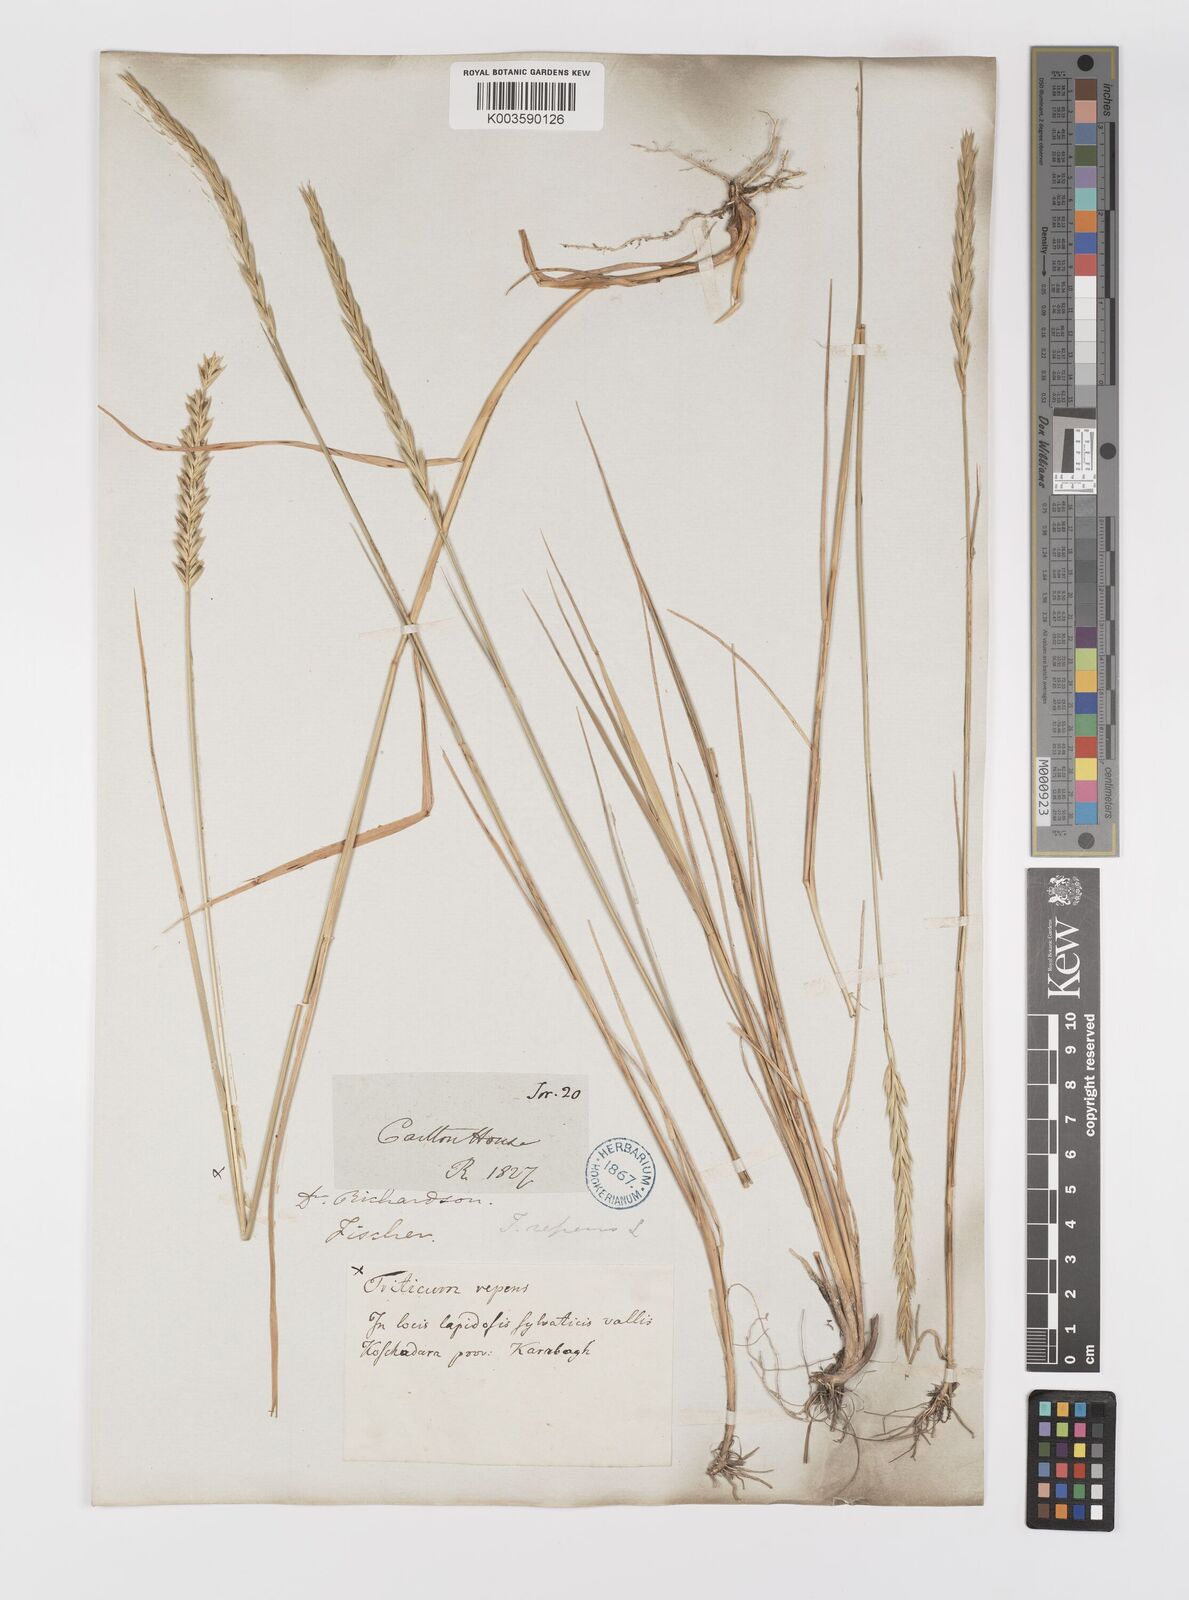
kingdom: Plantae
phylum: Tracheophyta
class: Liliopsida
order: Poales
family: Poaceae
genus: Elymus
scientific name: Elymus repens
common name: Quackgrass
